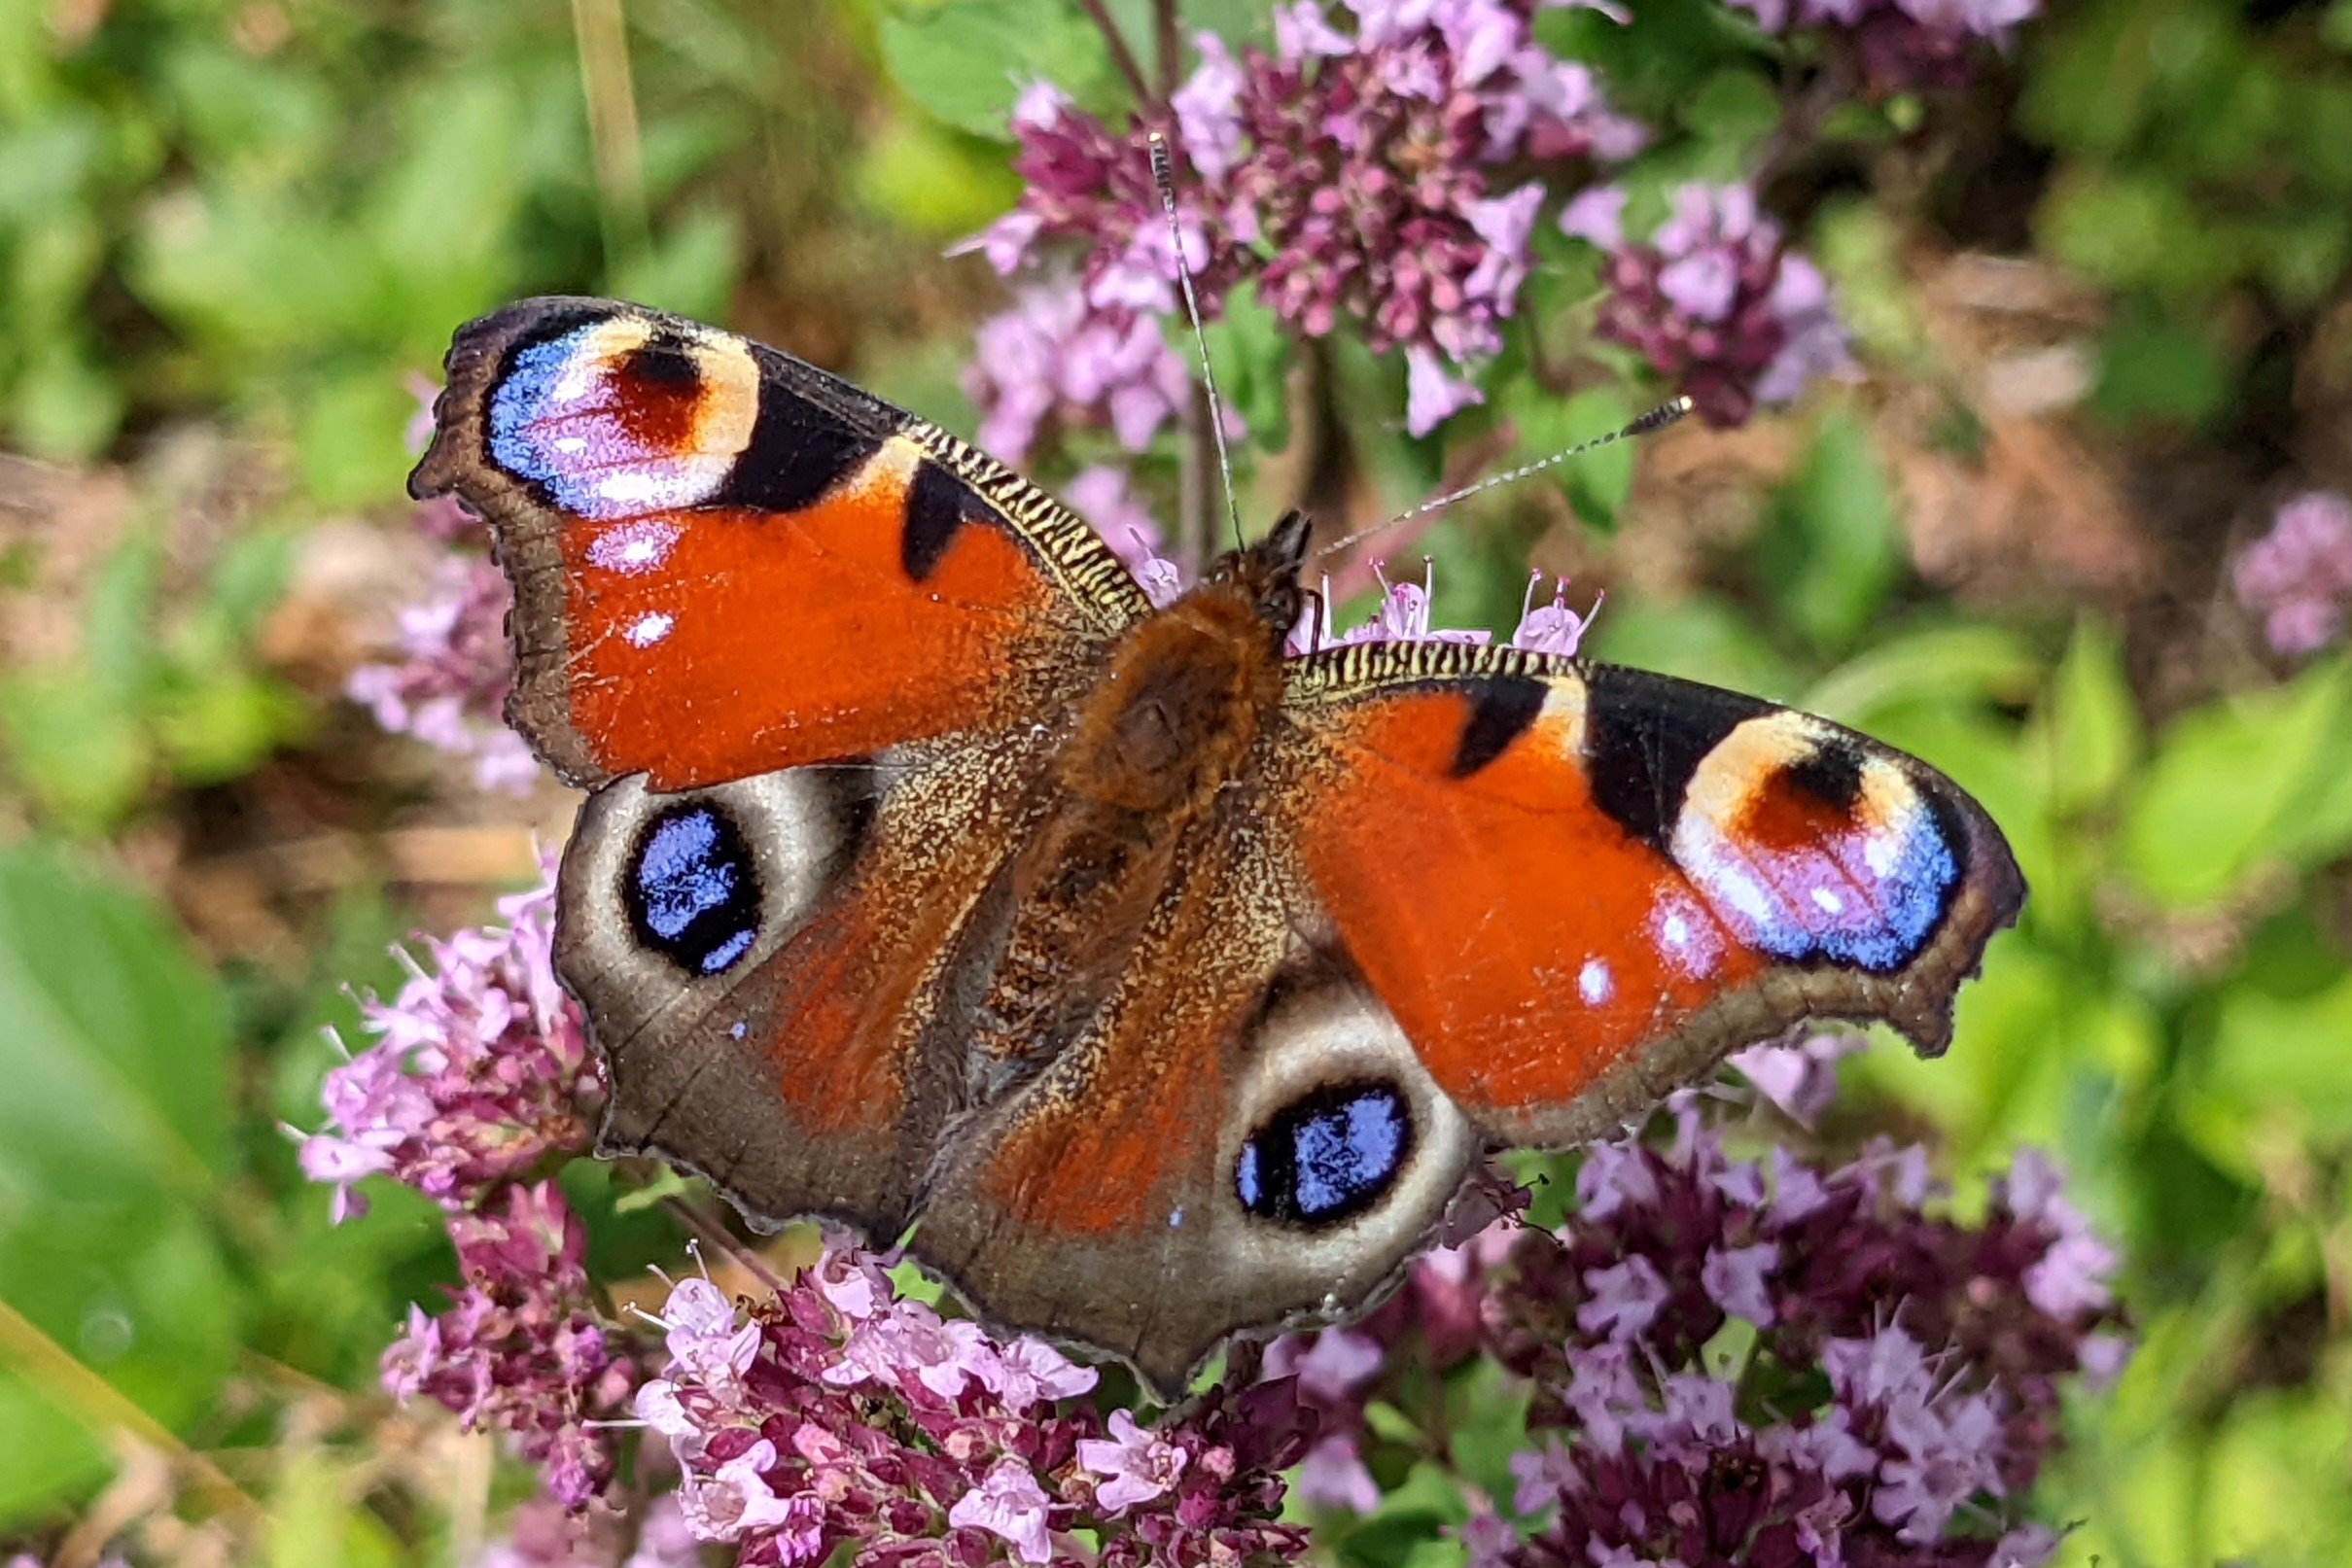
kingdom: Animalia
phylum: Arthropoda
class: Insecta
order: Lepidoptera
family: Nymphalidae
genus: Aglais
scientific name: Aglais io
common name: Dagpåfugleøje
